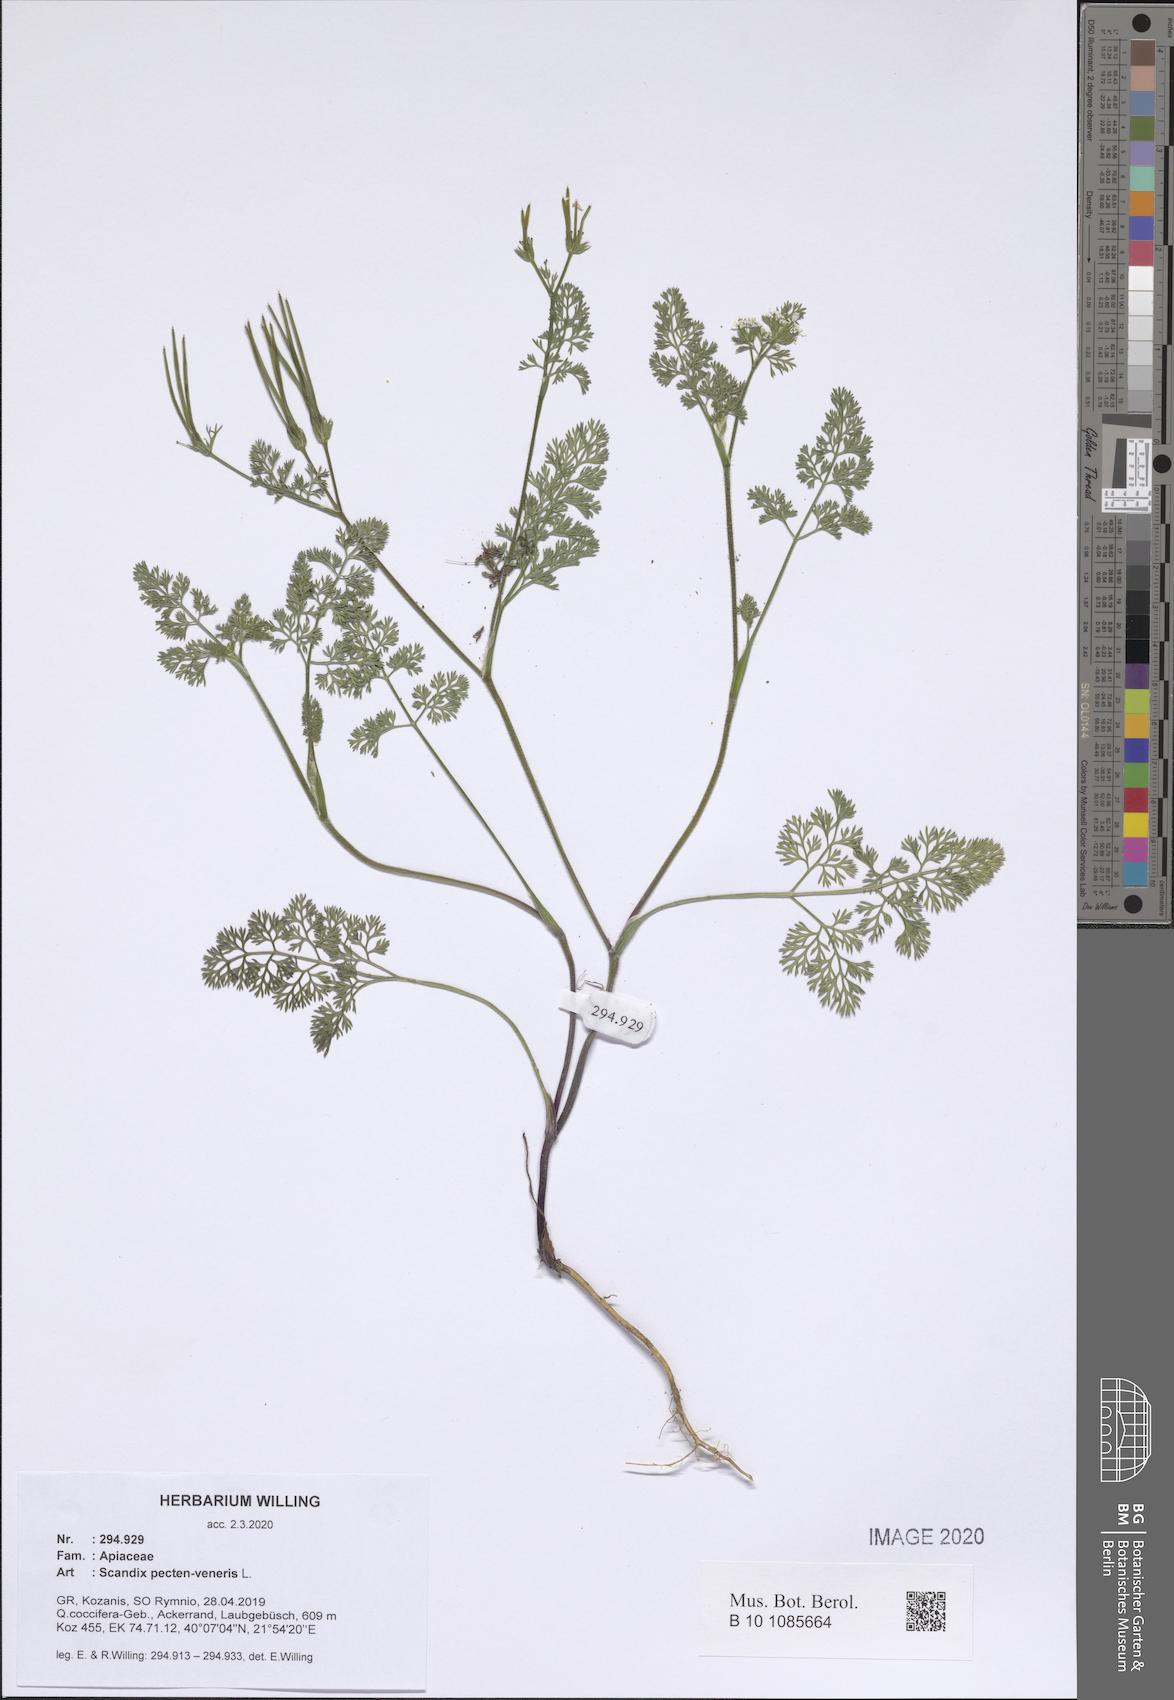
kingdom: Plantae
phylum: Tracheophyta
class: Magnoliopsida
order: Apiales
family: Apiaceae
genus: Scandix
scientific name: Scandix pecten-veneris
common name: Shepherd's-needle
